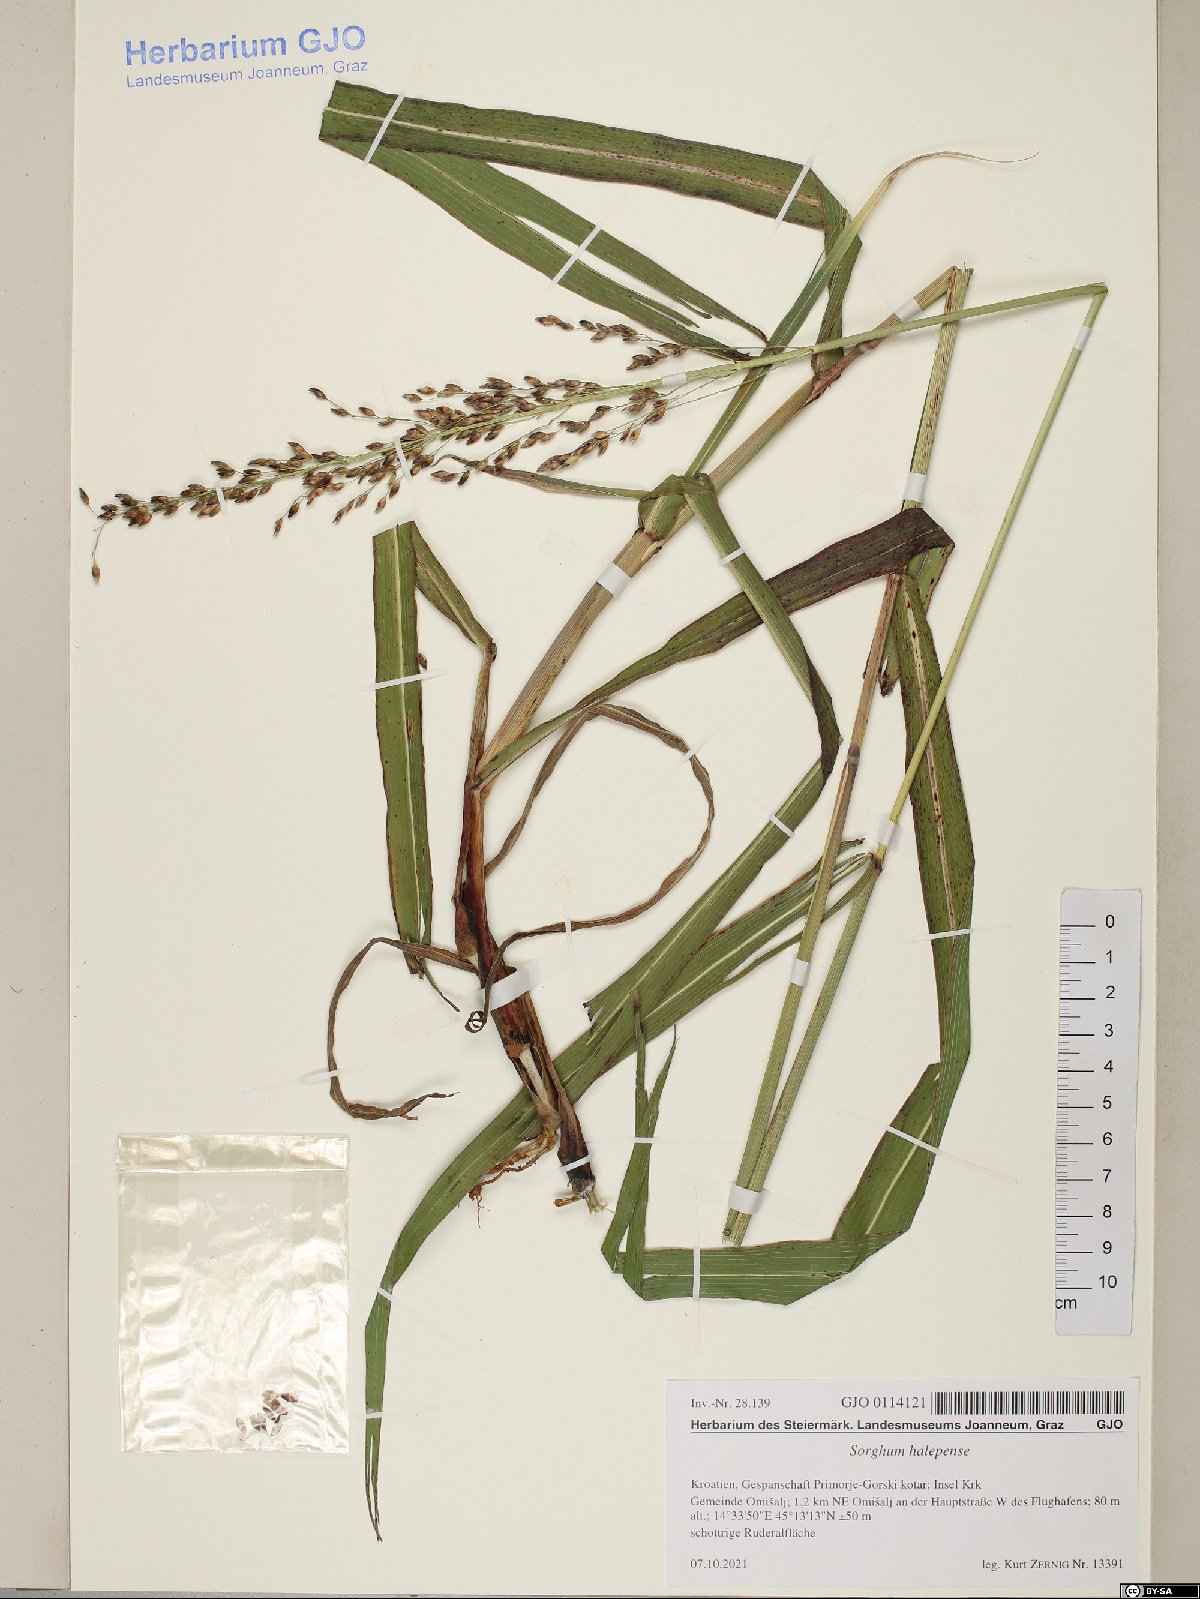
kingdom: Plantae
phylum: Tracheophyta
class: Liliopsida
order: Poales
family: Poaceae
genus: Sorghum
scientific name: Sorghum halepense
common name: Johnson-grass
